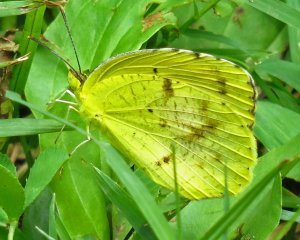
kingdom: Animalia
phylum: Arthropoda
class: Insecta
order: Lepidoptera
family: Pieridae
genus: Abaeis
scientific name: Abaeis nicippe
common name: Sleepy Orange
